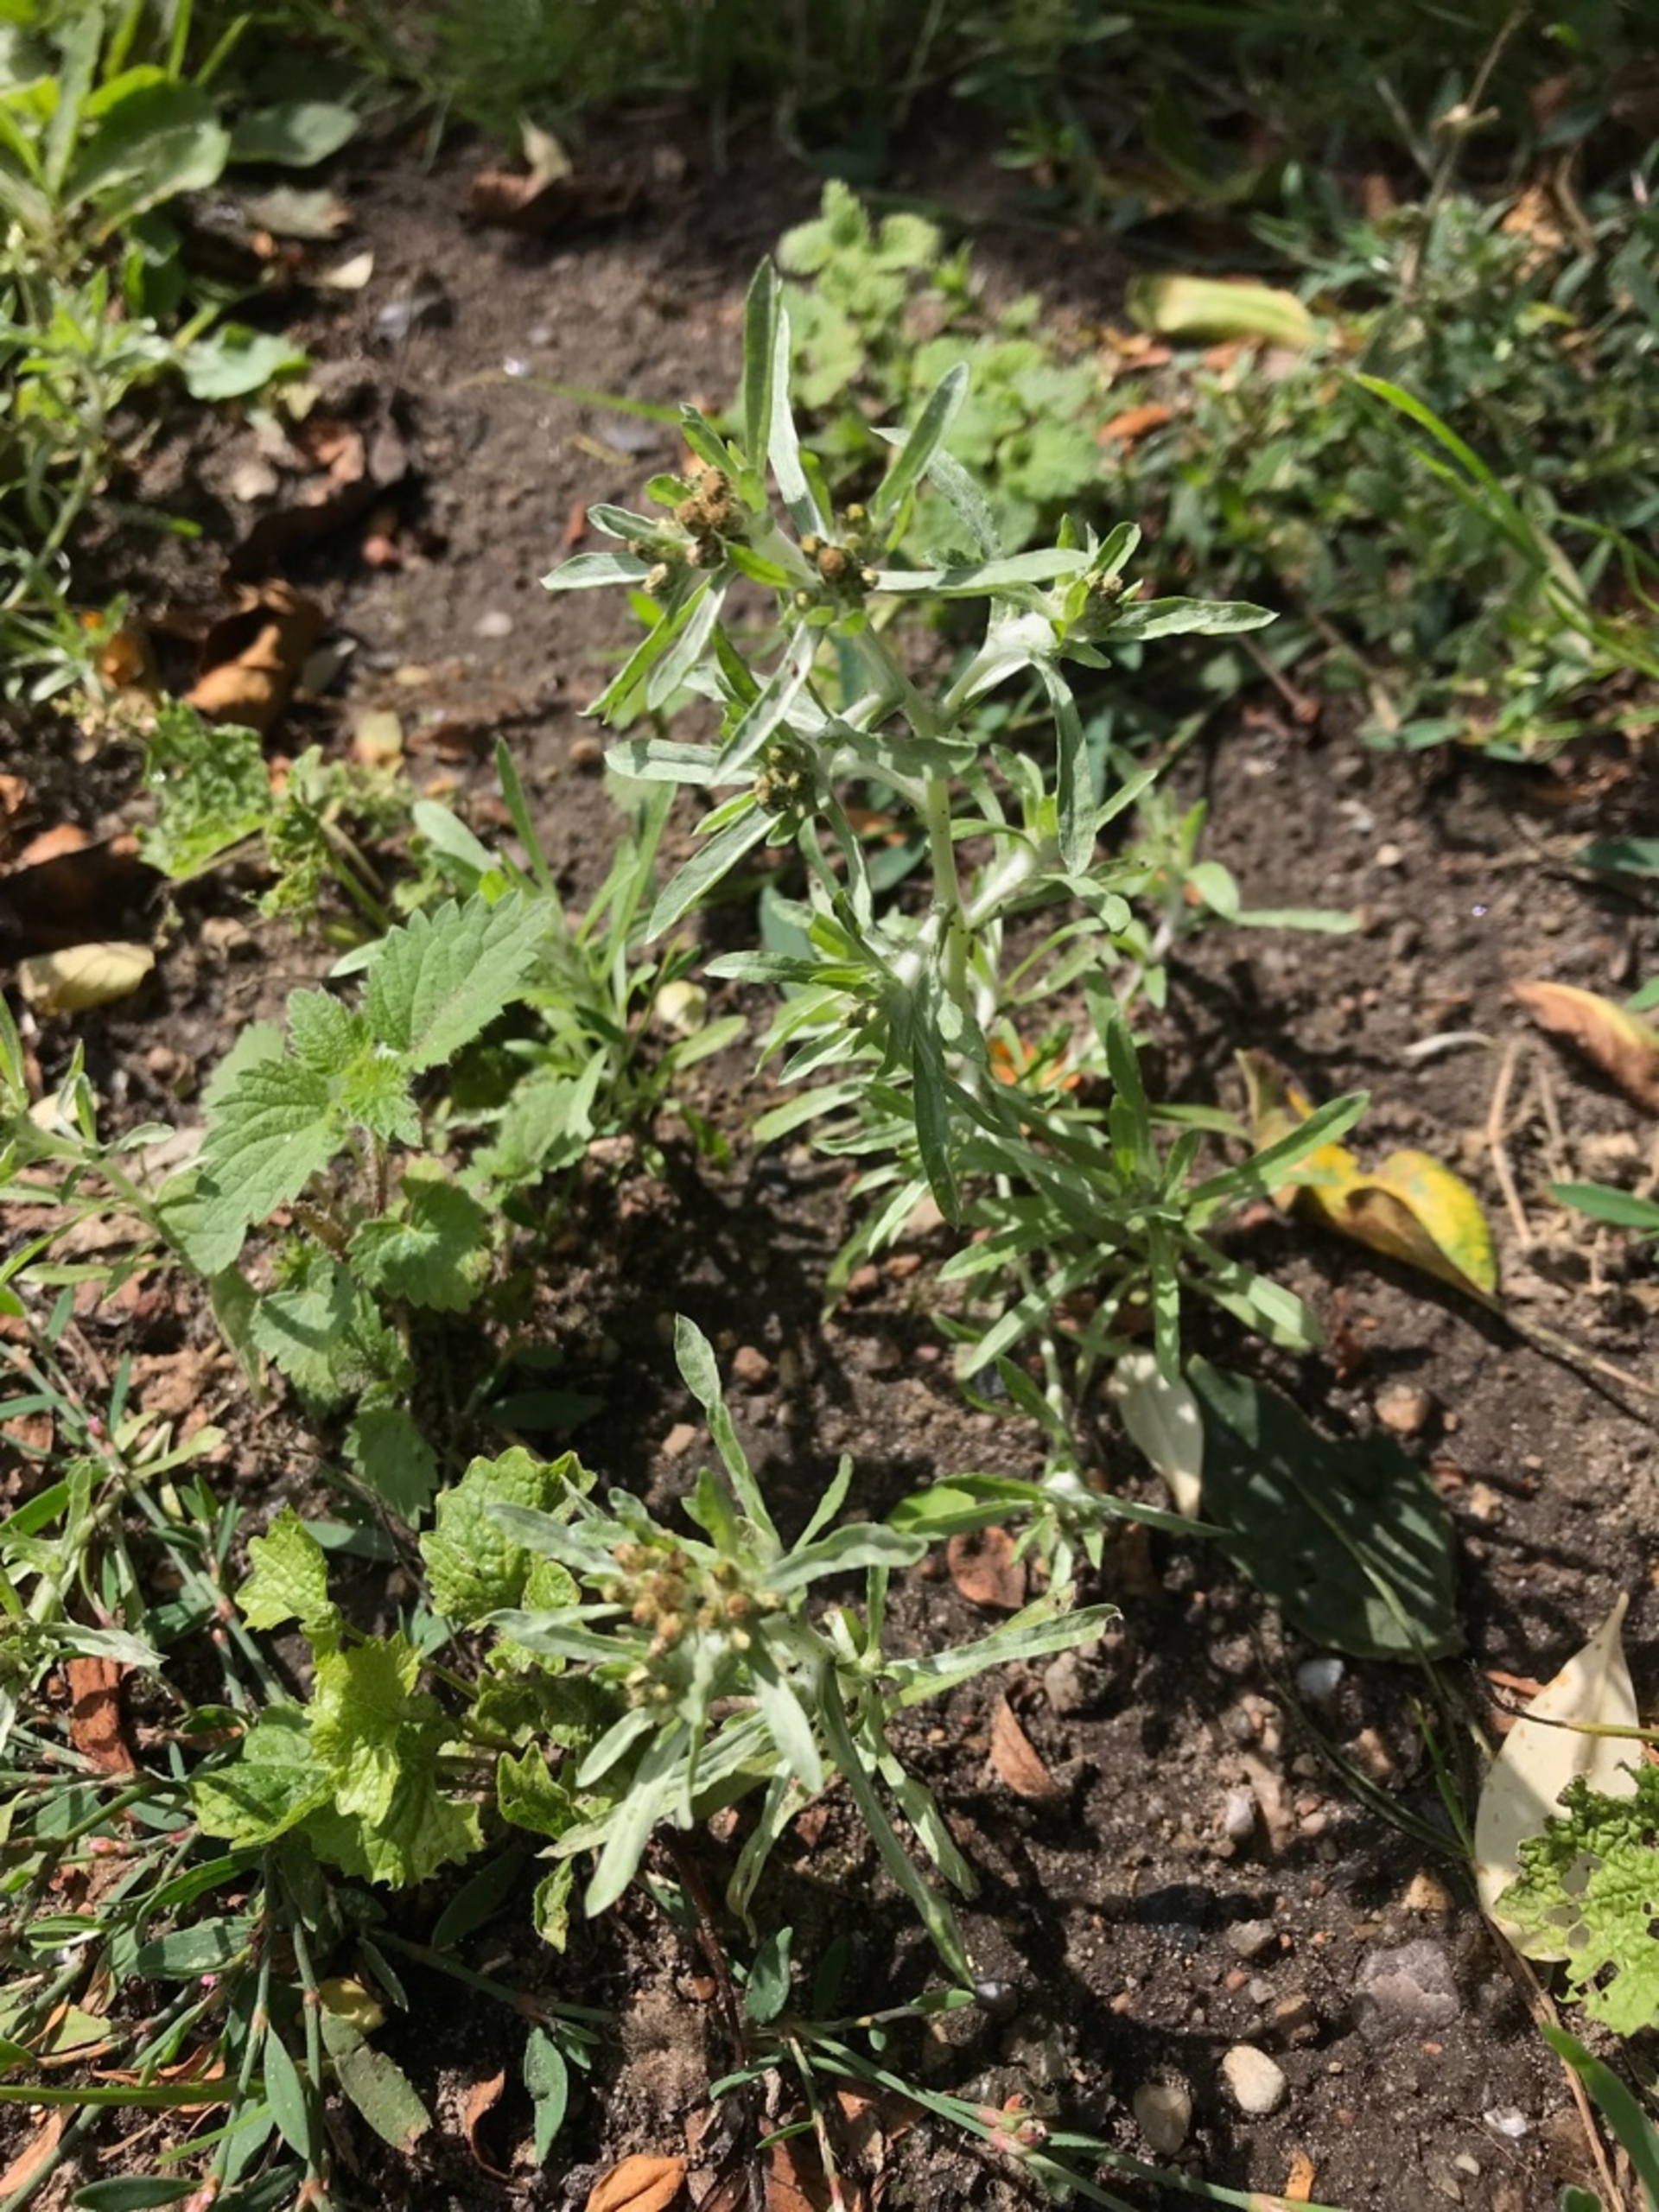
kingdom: Plantae
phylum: Tracheophyta
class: Magnoliopsida
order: Asterales
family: Asteraceae
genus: Gnaphalium
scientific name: Gnaphalium uliginosum
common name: Sump-evighedsblomst
